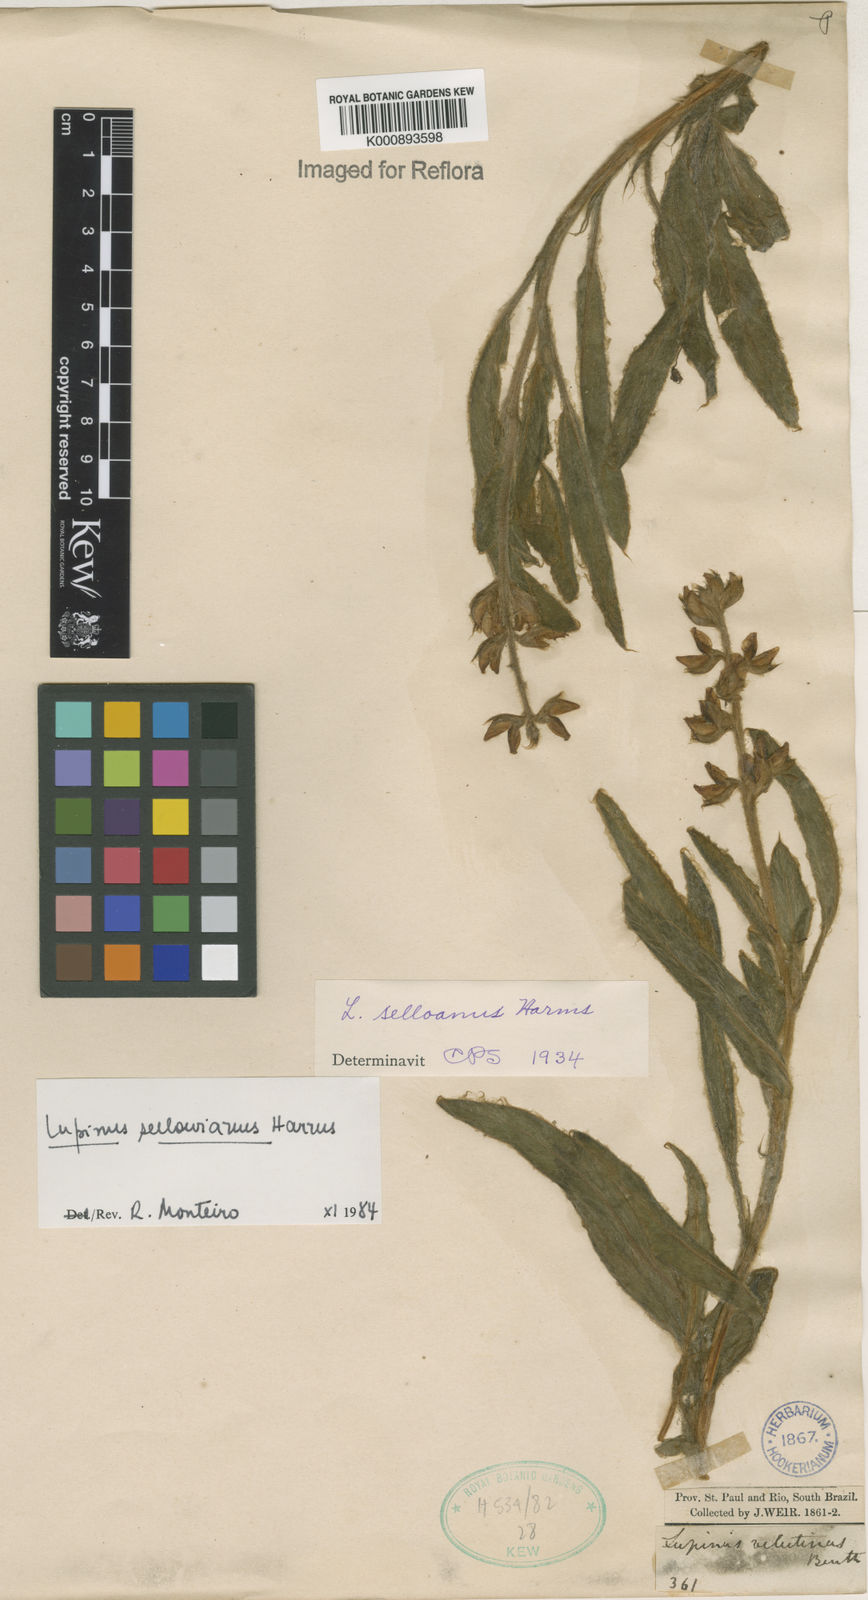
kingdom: Plantae
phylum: Tracheophyta
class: Magnoliopsida
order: Fabales
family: Fabaceae
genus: Lupinus
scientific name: Lupinus sellowianus
